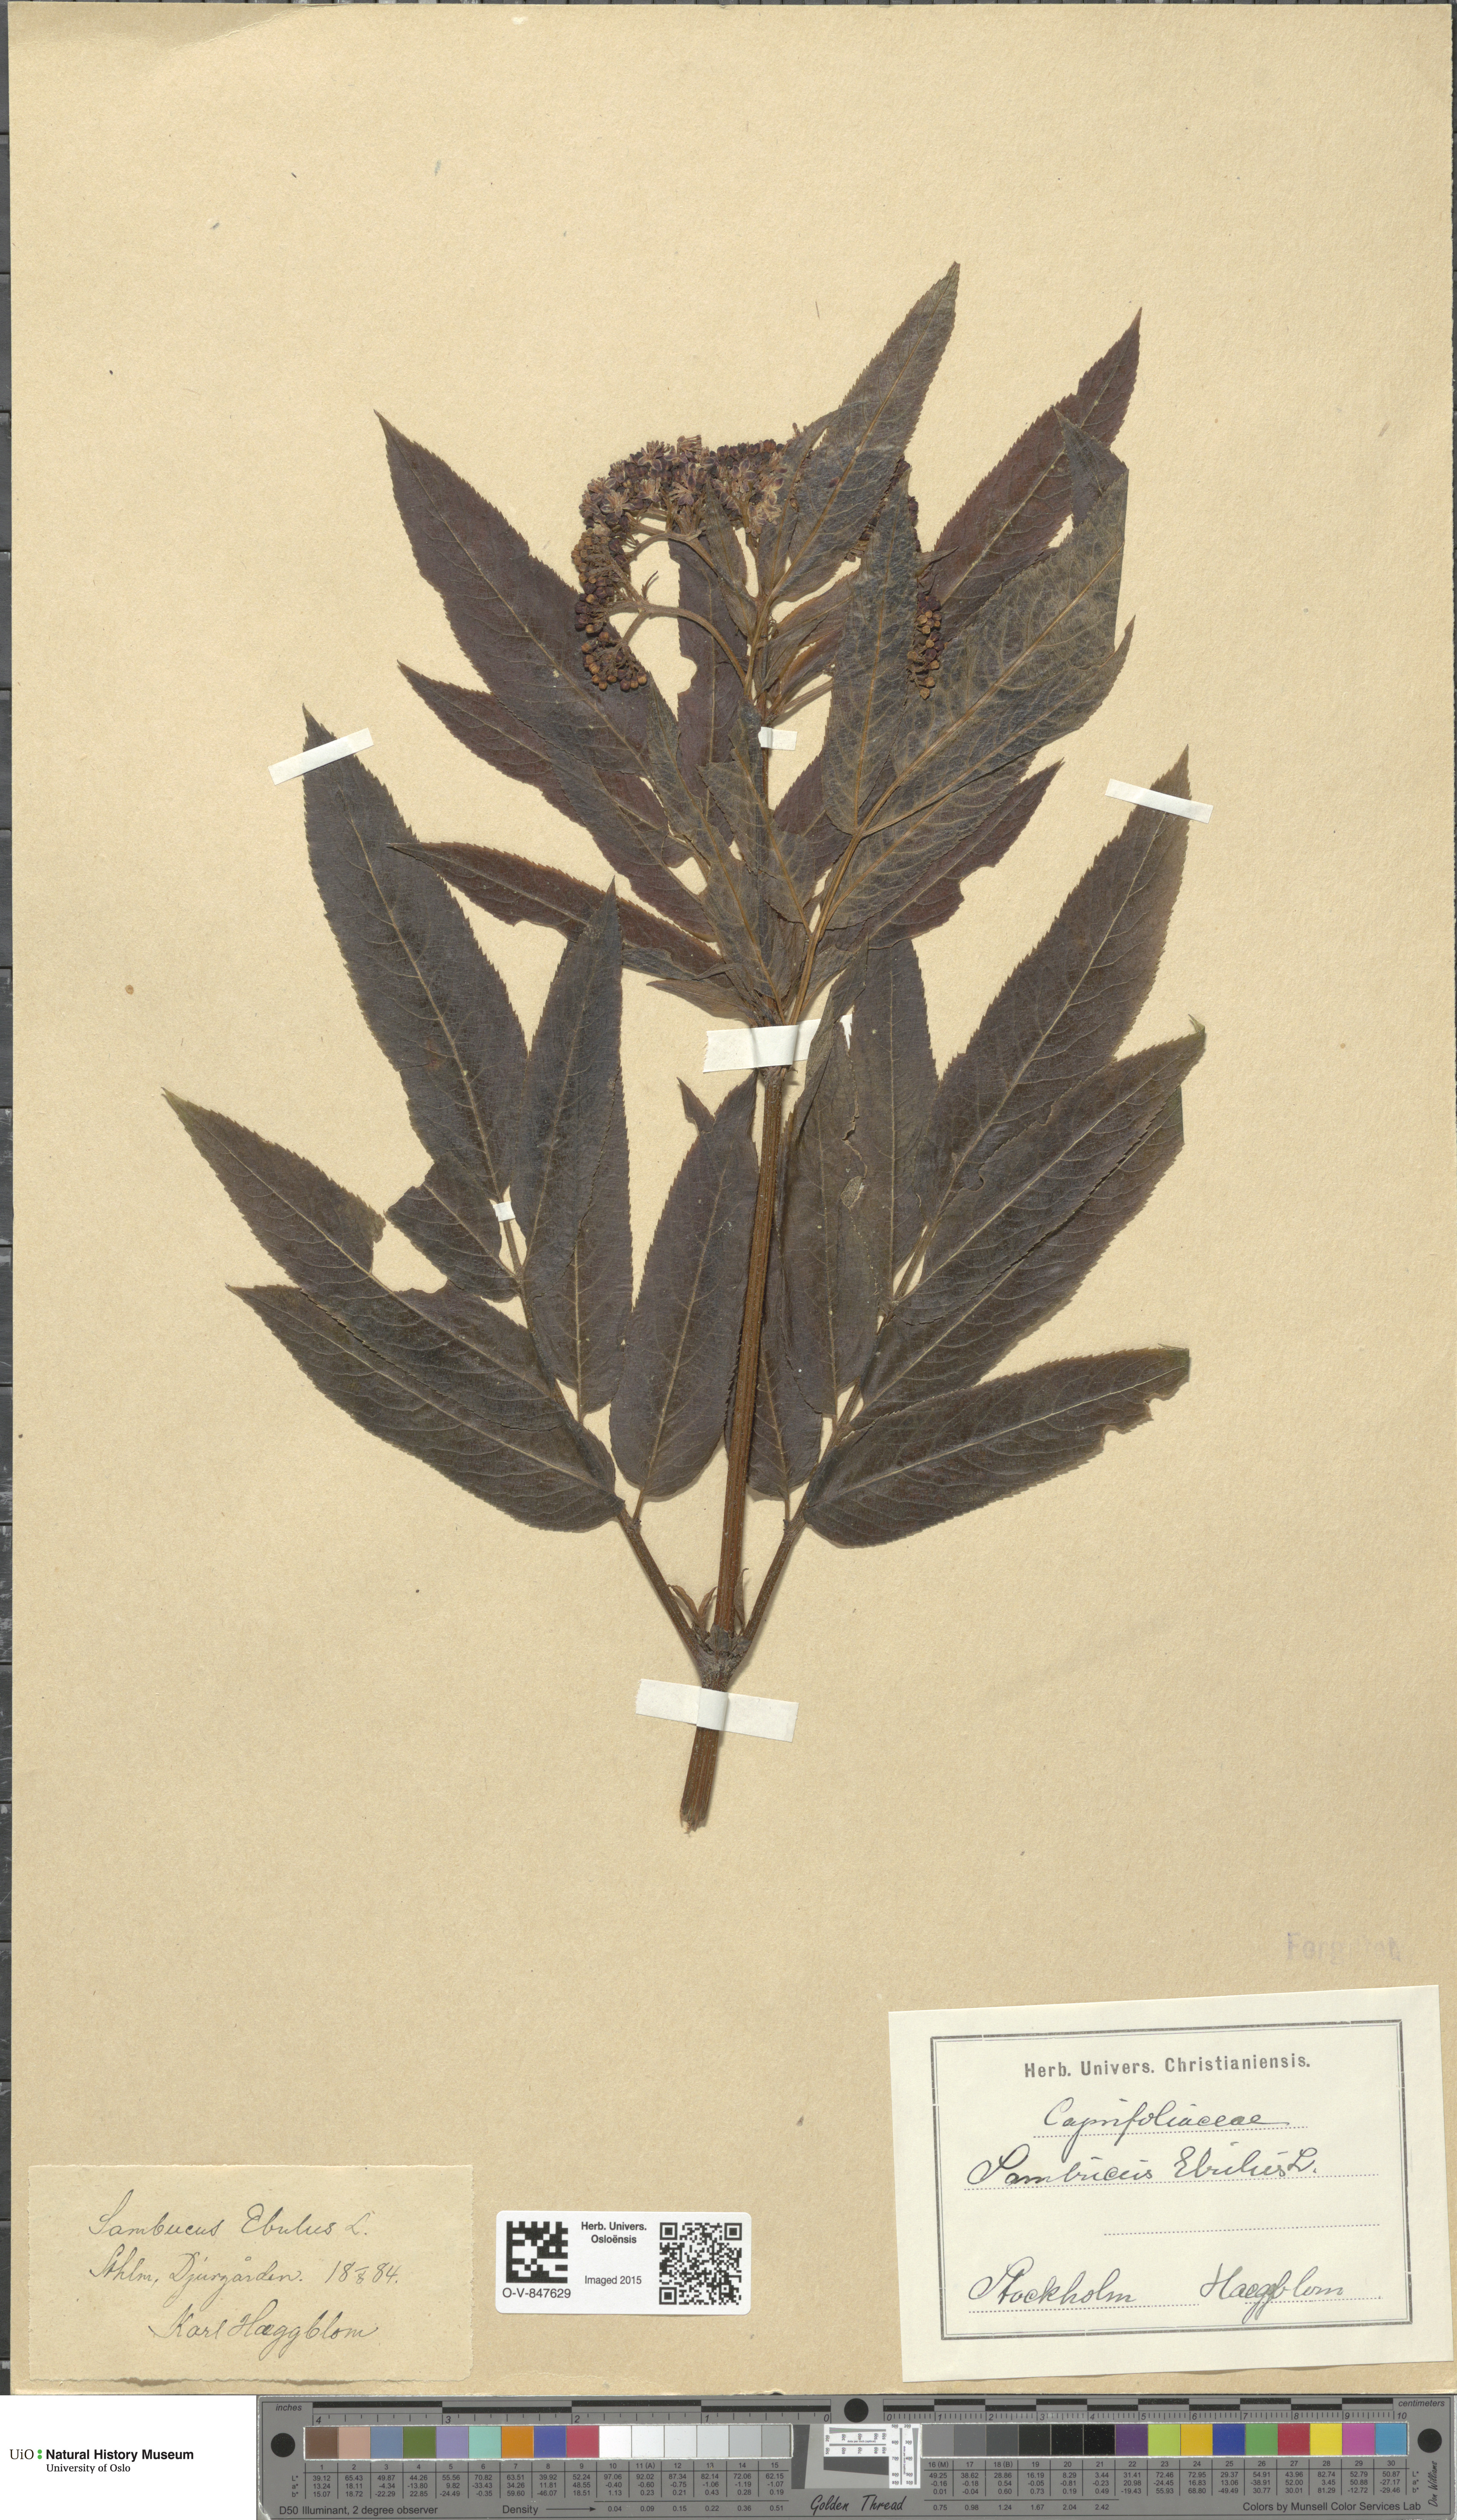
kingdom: Plantae
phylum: Tracheophyta
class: Magnoliopsida
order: Dipsacales
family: Viburnaceae
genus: Sambucus
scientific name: Sambucus ebulus
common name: Dwarf elder
